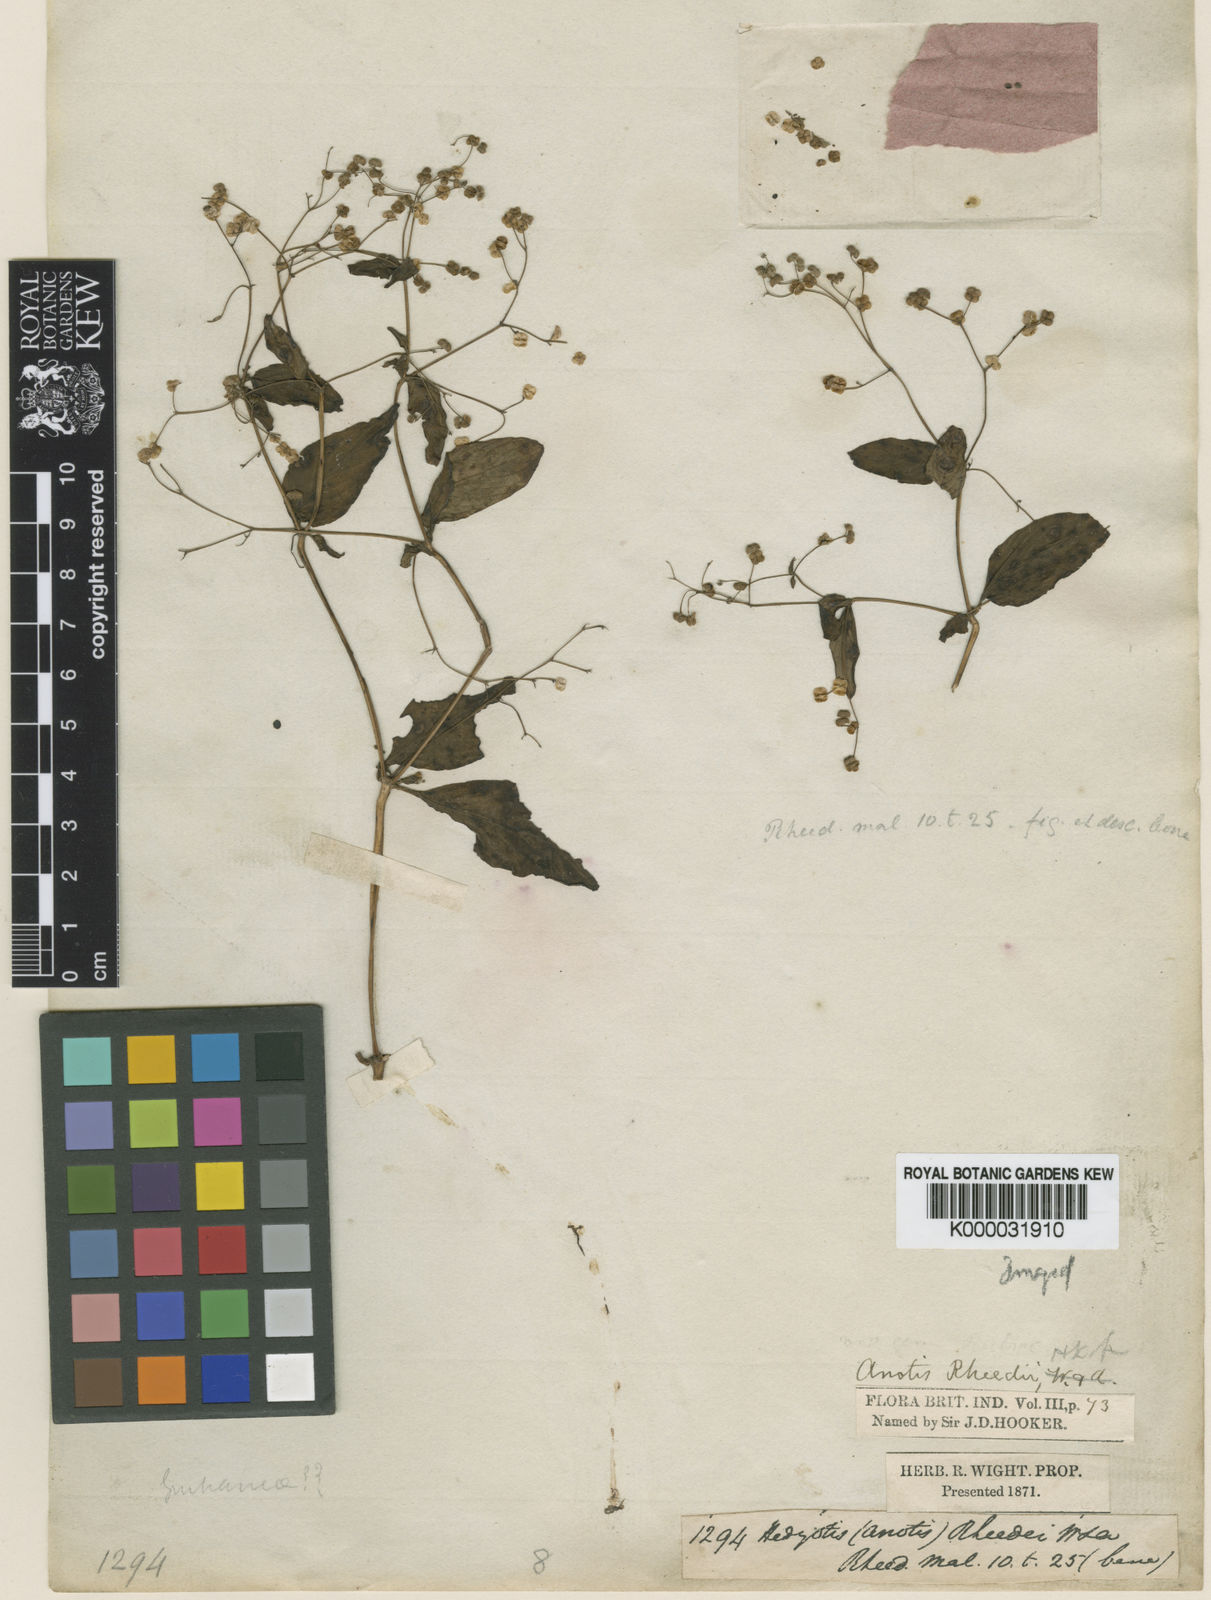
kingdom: Plantae
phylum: Tracheophyta
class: Magnoliopsida
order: Gentianales
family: Rubiaceae
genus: Neanotis
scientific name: Neanotis rheedei
